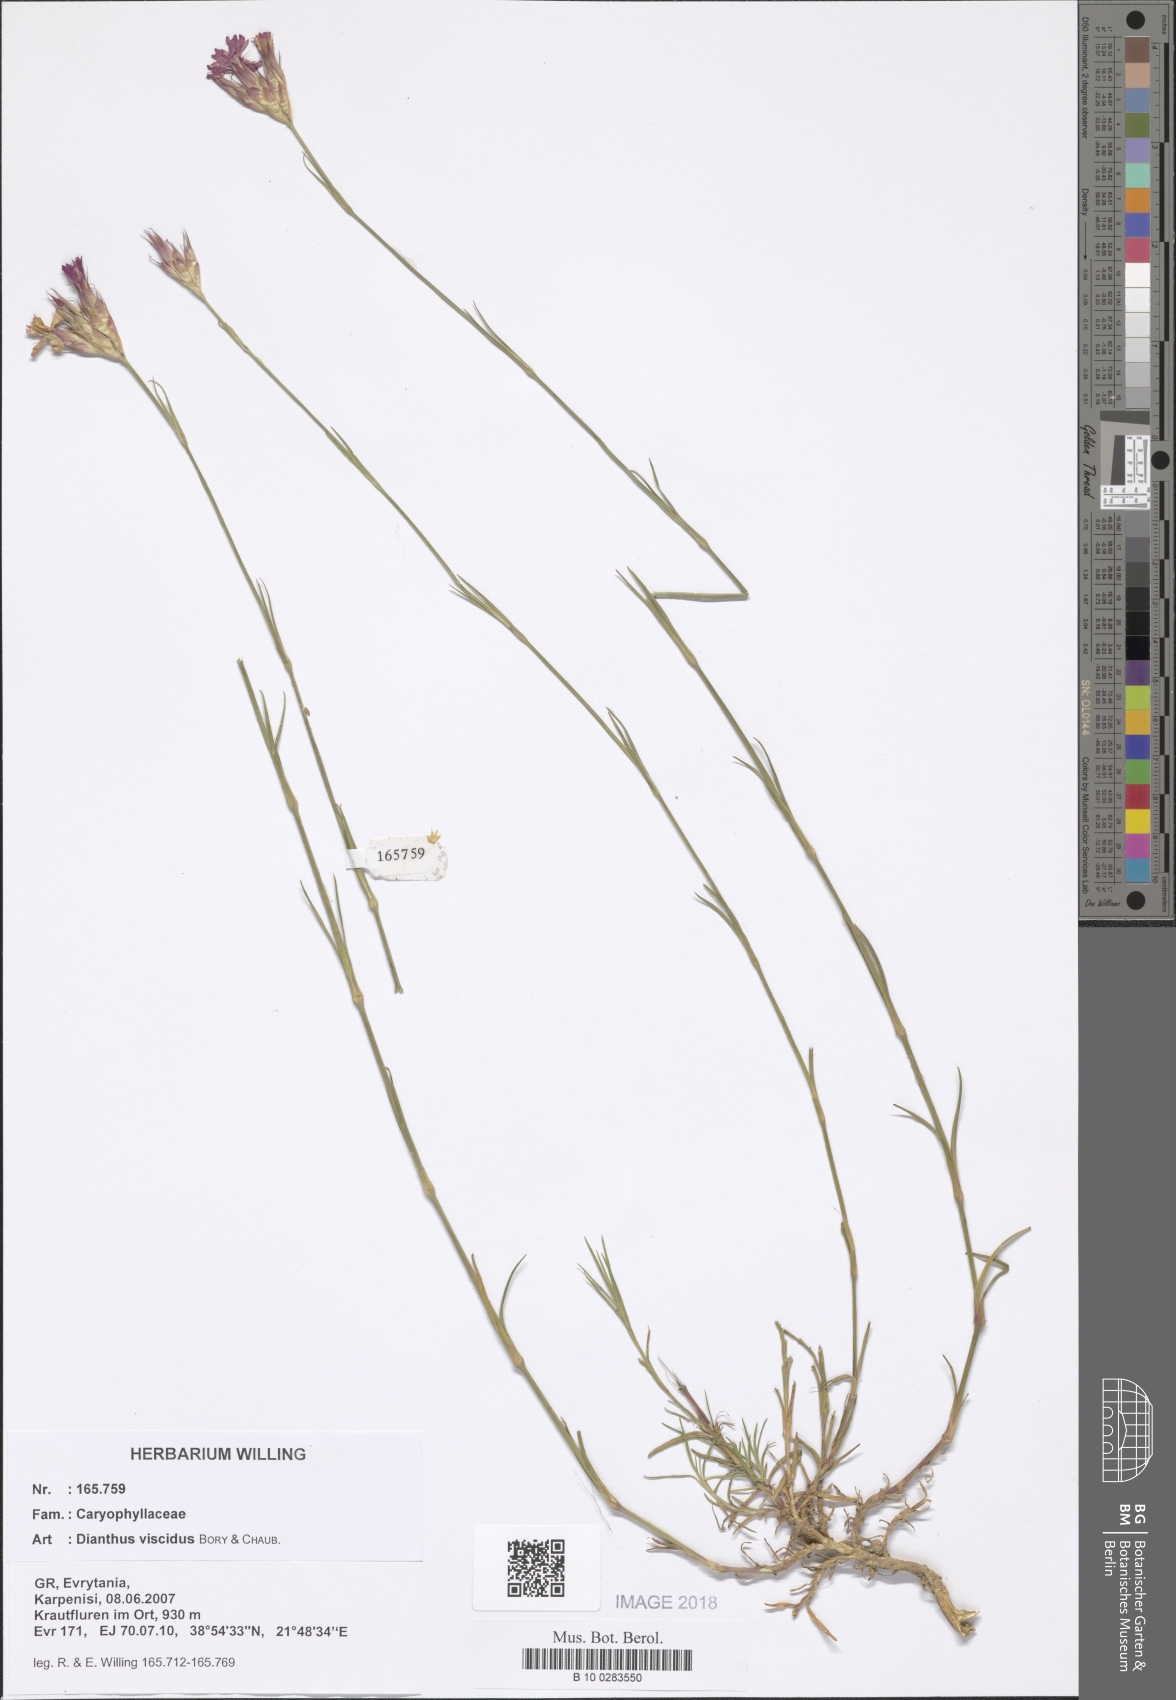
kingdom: Plantae
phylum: Tracheophyta
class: Magnoliopsida
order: Caryophyllales
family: Caryophyllaceae
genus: Dianthus
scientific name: Dianthus viscidus
